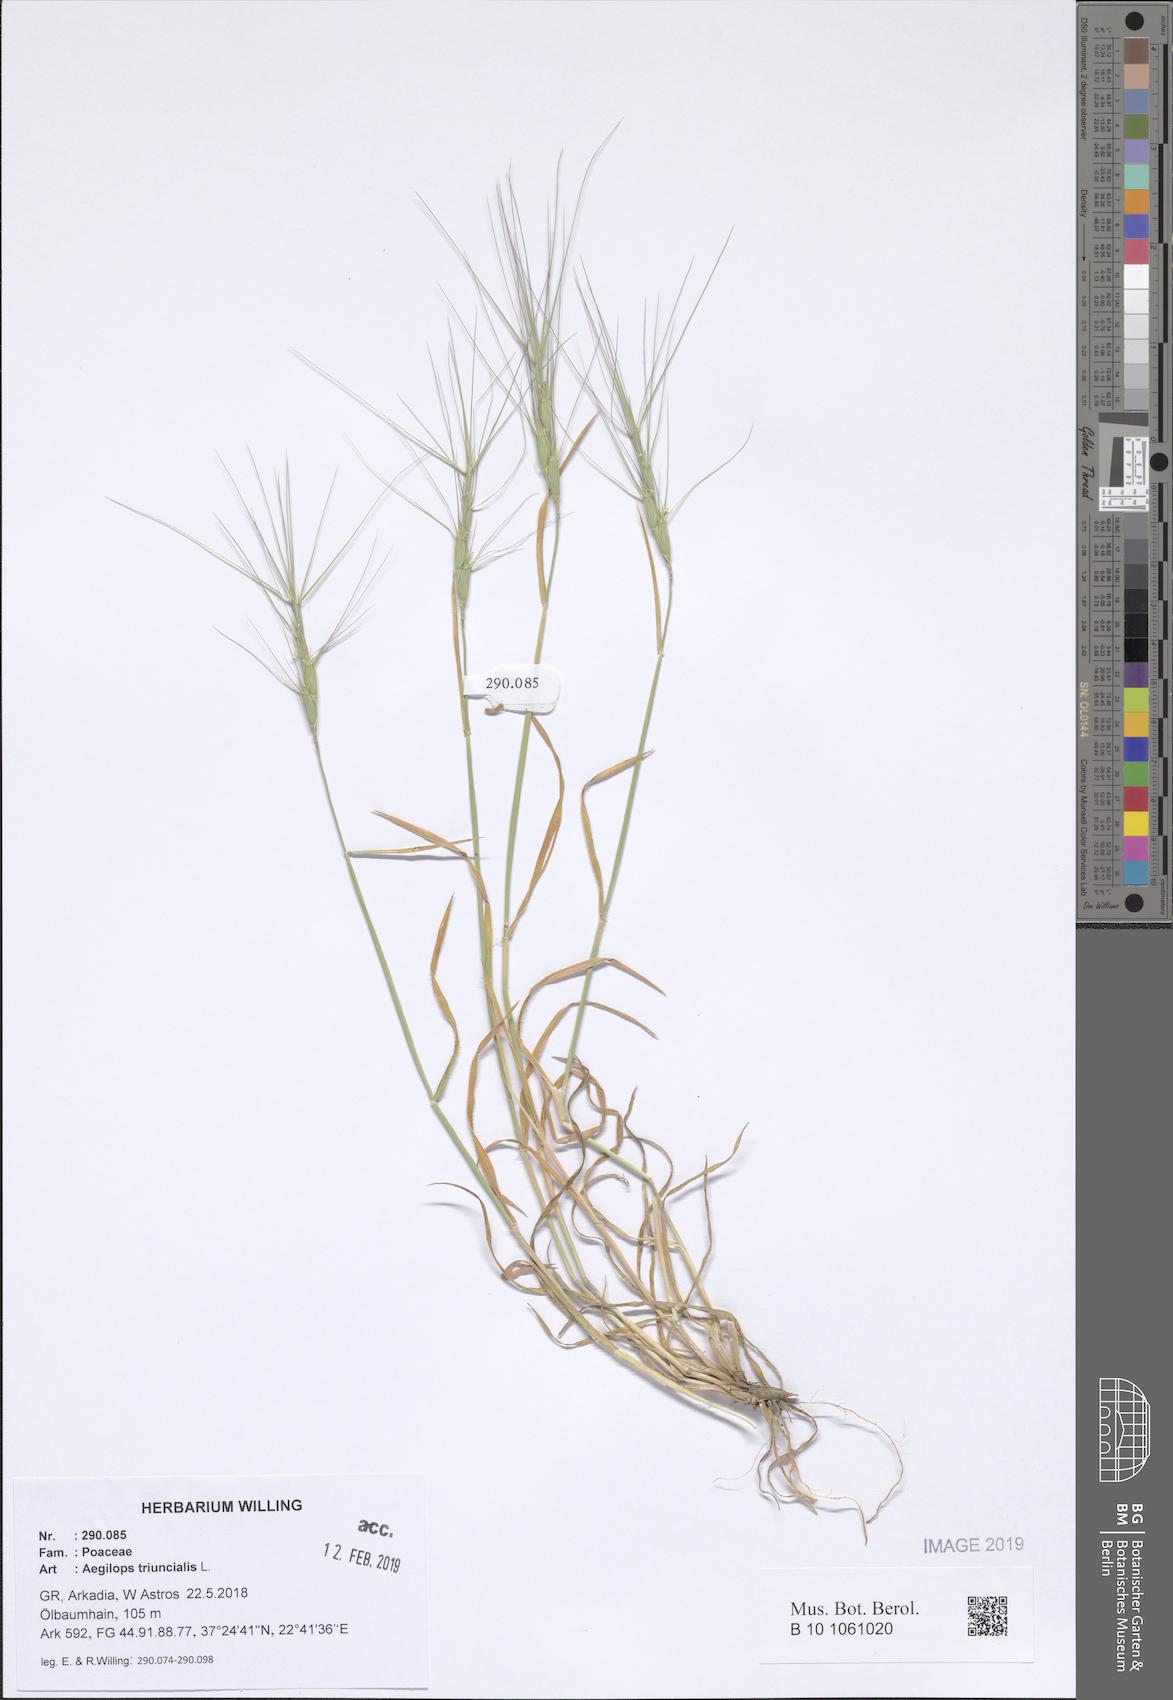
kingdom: Plantae
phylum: Tracheophyta
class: Liliopsida
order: Poales
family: Poaceae
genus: Aegilops
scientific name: Aegilops triuncialis
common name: Barb goat grass
